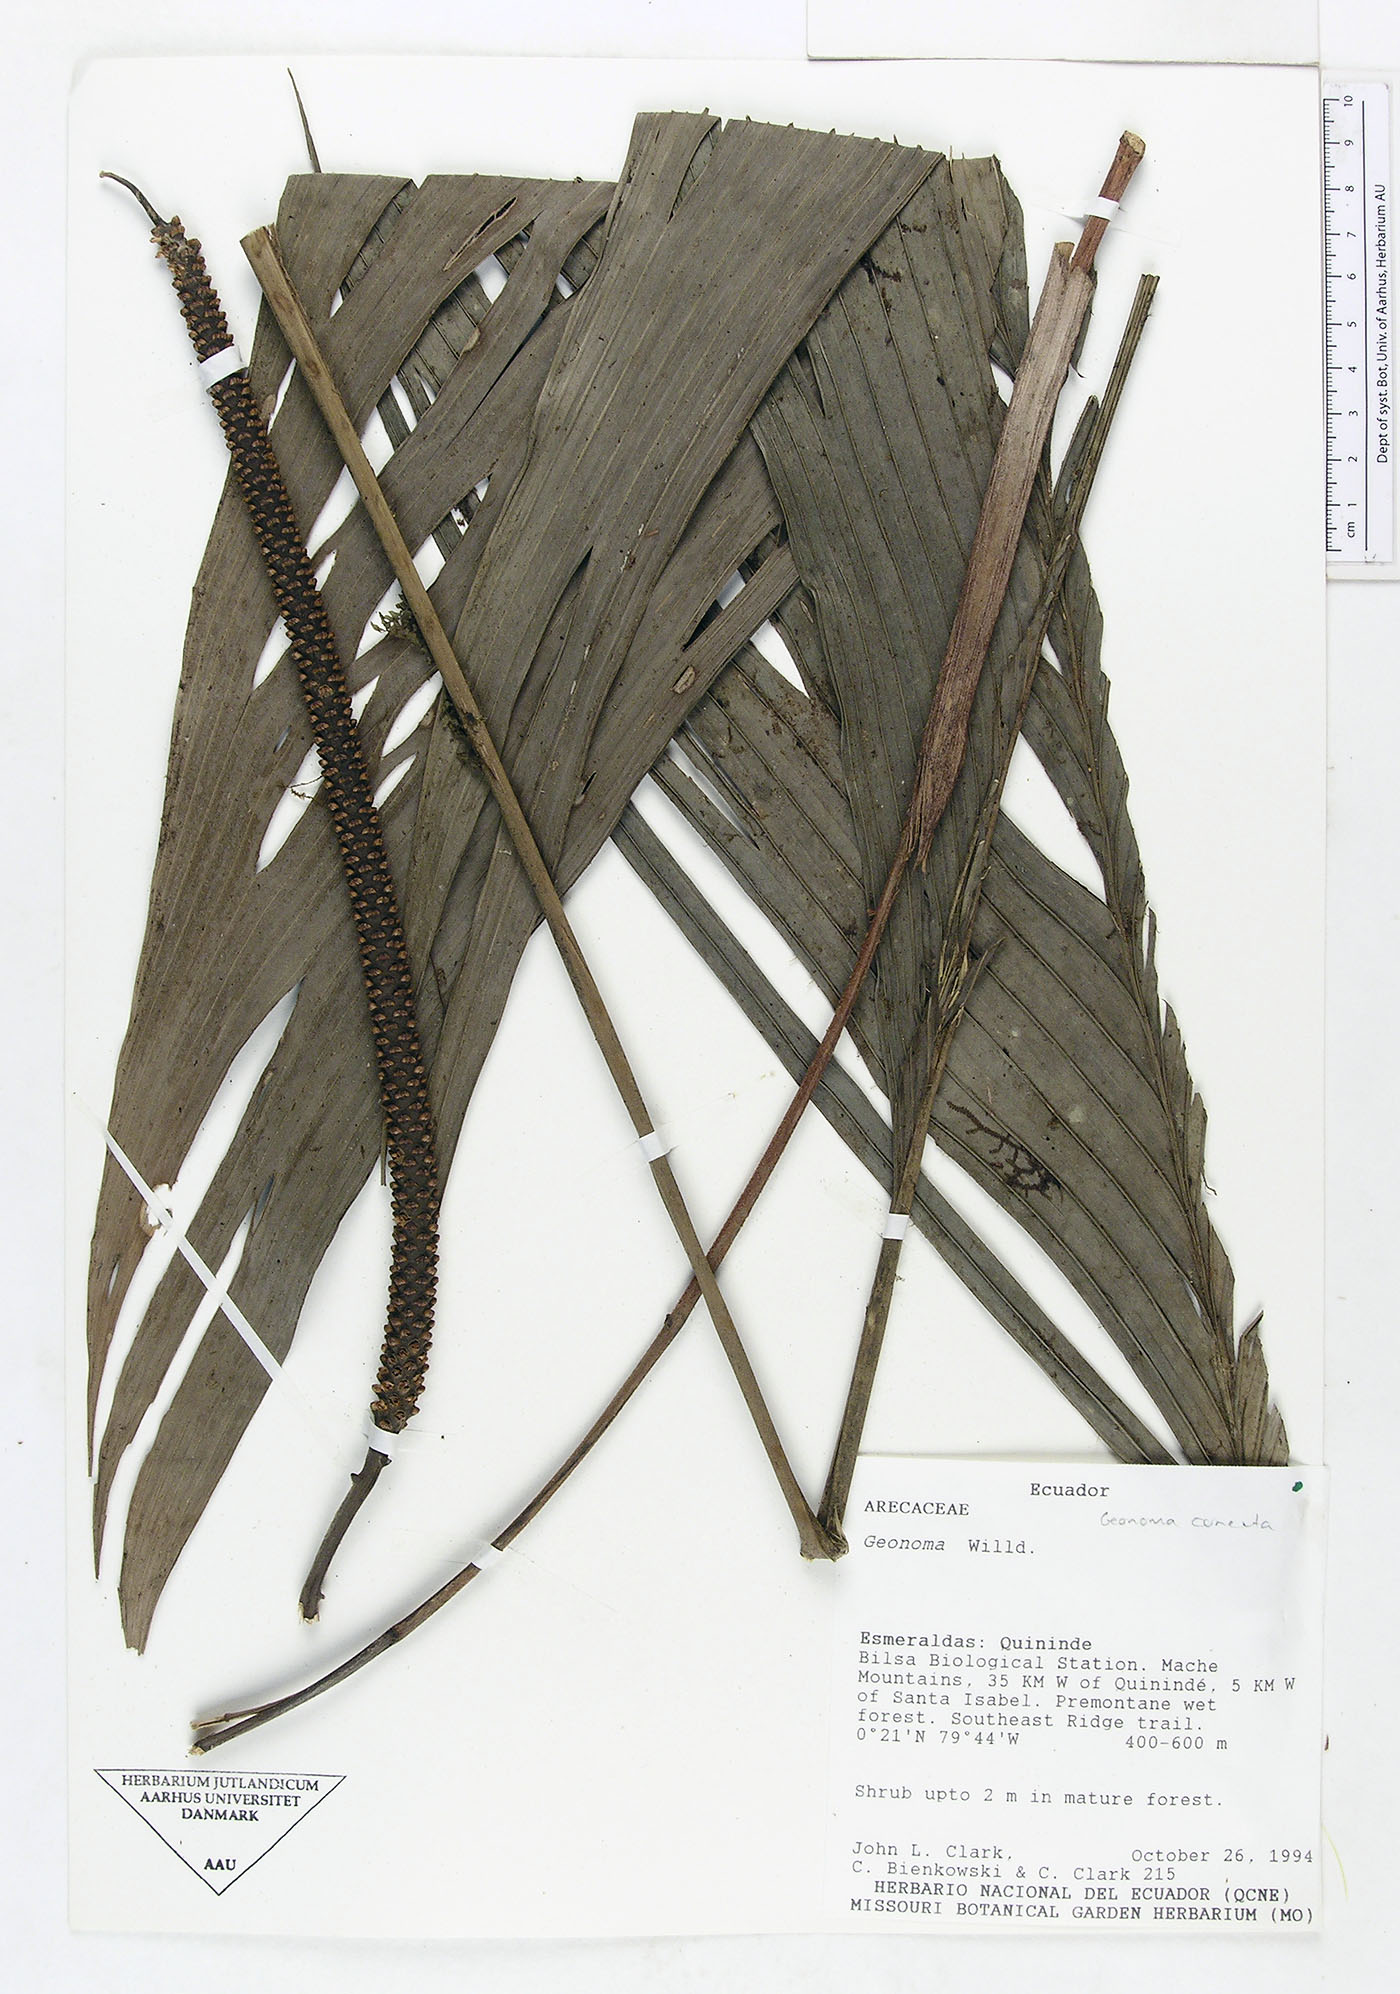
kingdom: Plantae
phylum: Tracheophyta
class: Liliopsida
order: Arecales
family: Arecaceae
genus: Geonoma
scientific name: Geonoma cuneata
